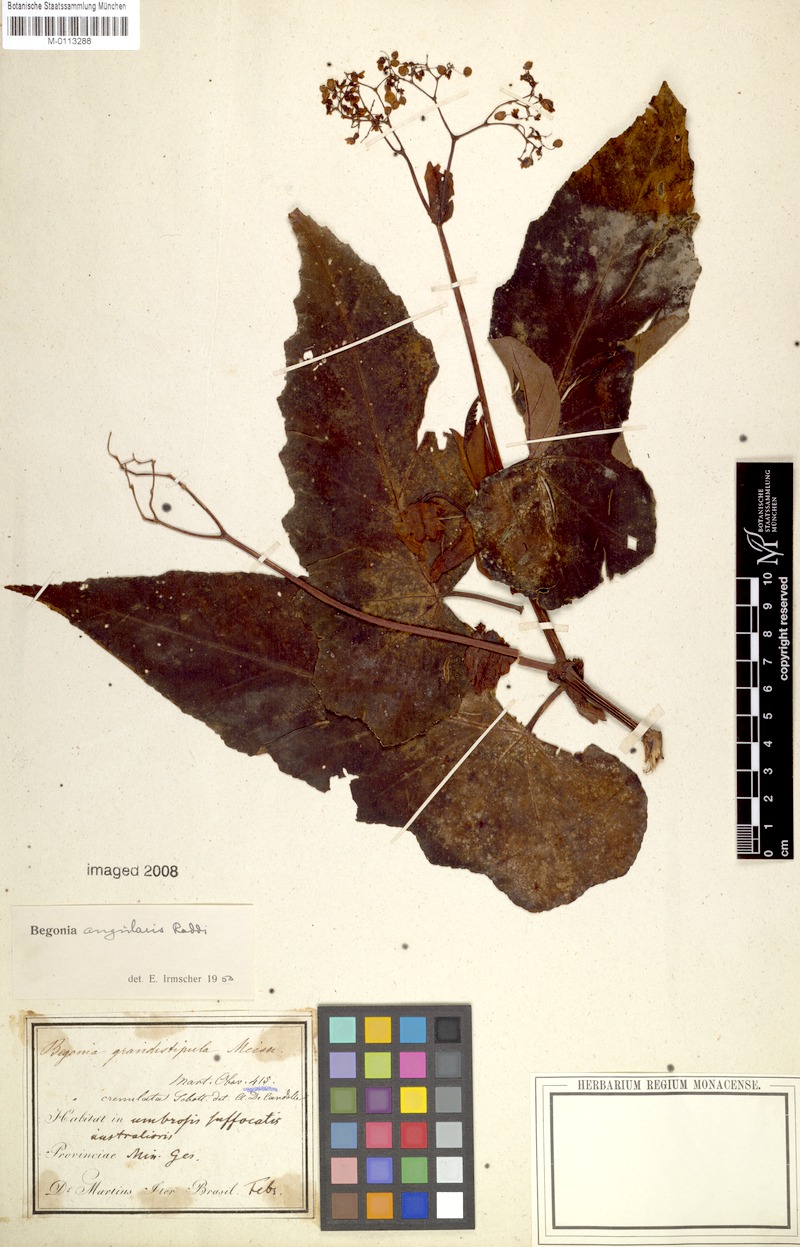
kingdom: Plantae
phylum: Tracheophyta
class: Magnoliopsida
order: Cucurbitales
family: Begoniaceae
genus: Begonia
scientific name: Begonia angularis
